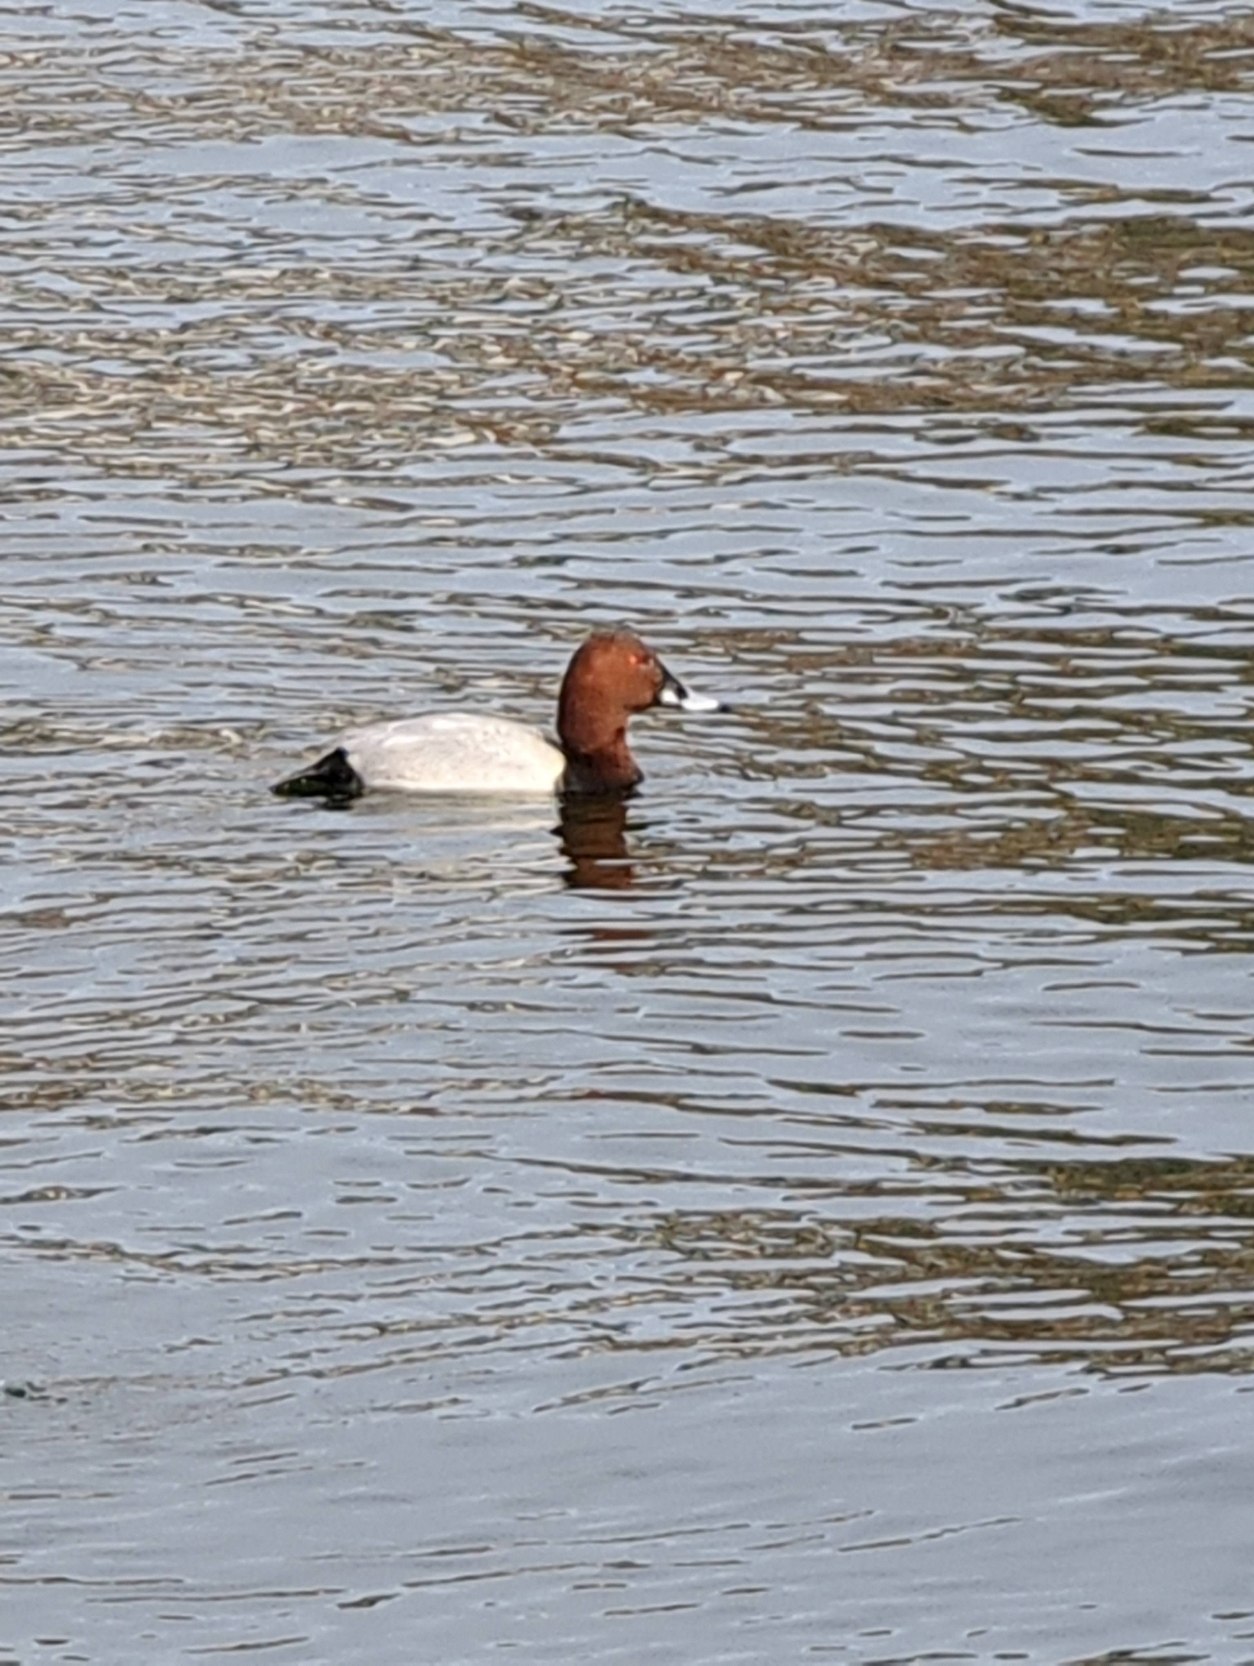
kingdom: Animalia
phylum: Chordata
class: Aves
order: Anseriformes
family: Anatidae
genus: Aythya
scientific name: Aythya ferina
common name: Taffeland
